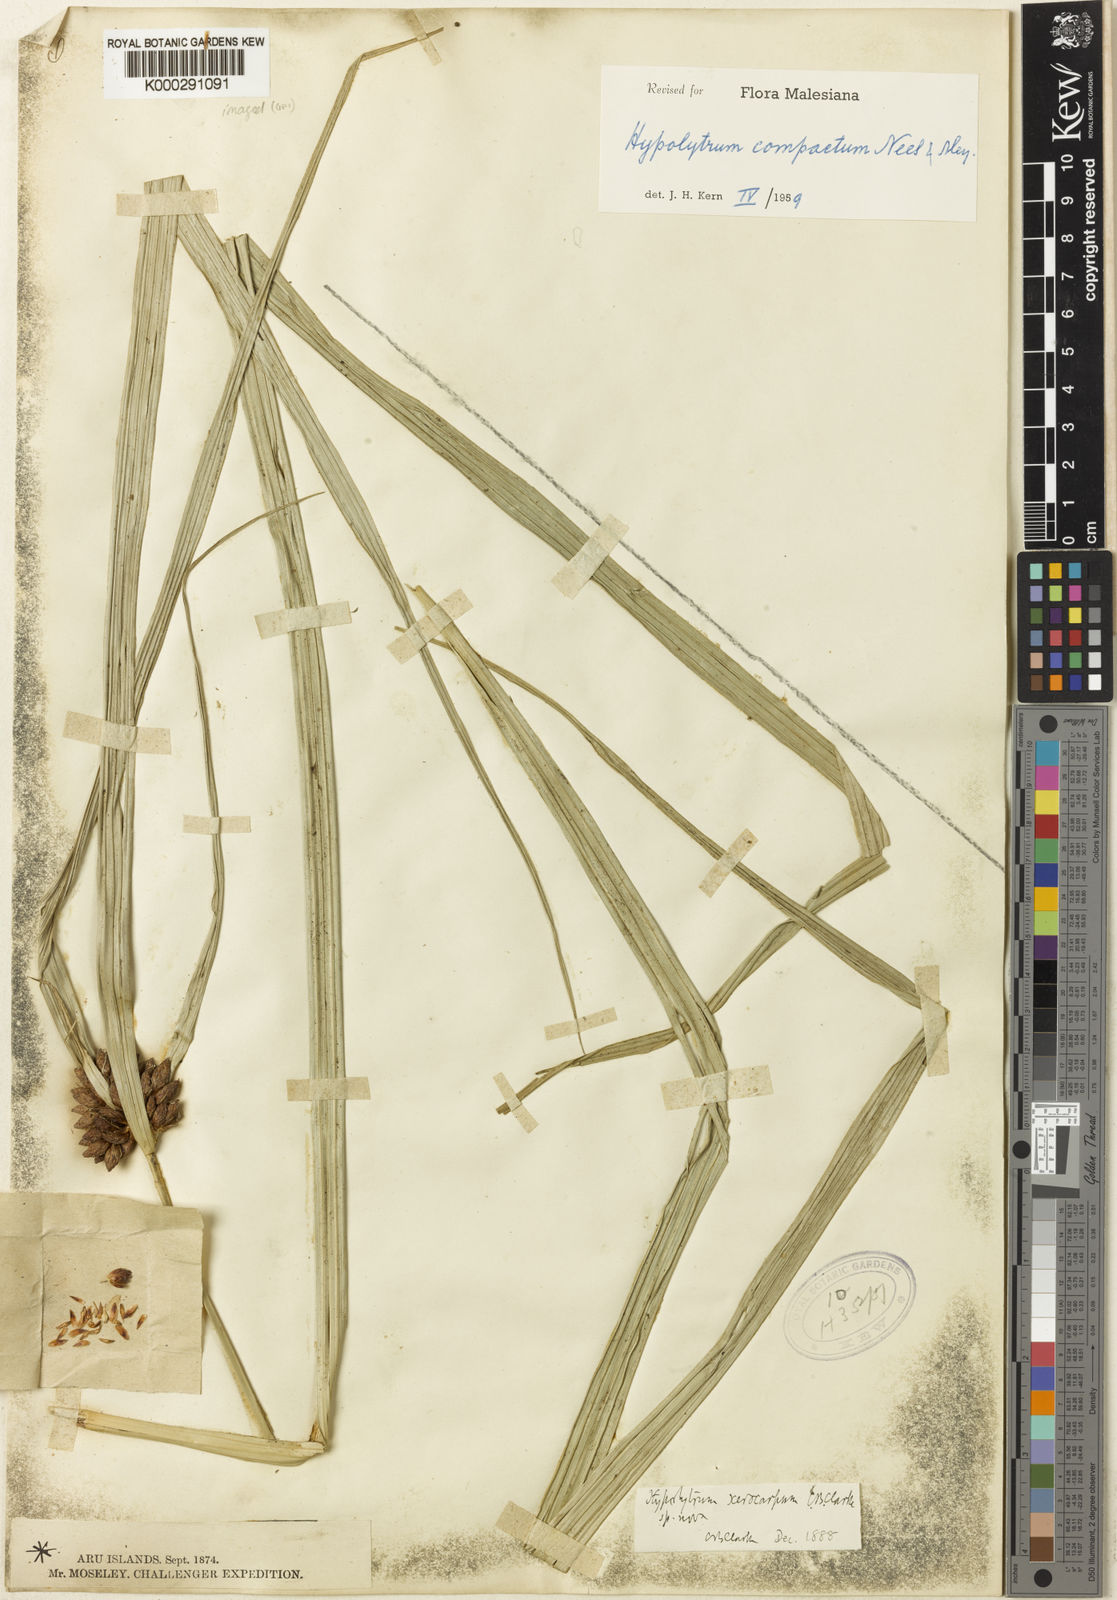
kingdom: Plantae
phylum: Tracheophyta
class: Liliopsida
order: Poales
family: Cyperaceae
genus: Hypolytrum
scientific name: Hypolytrum
